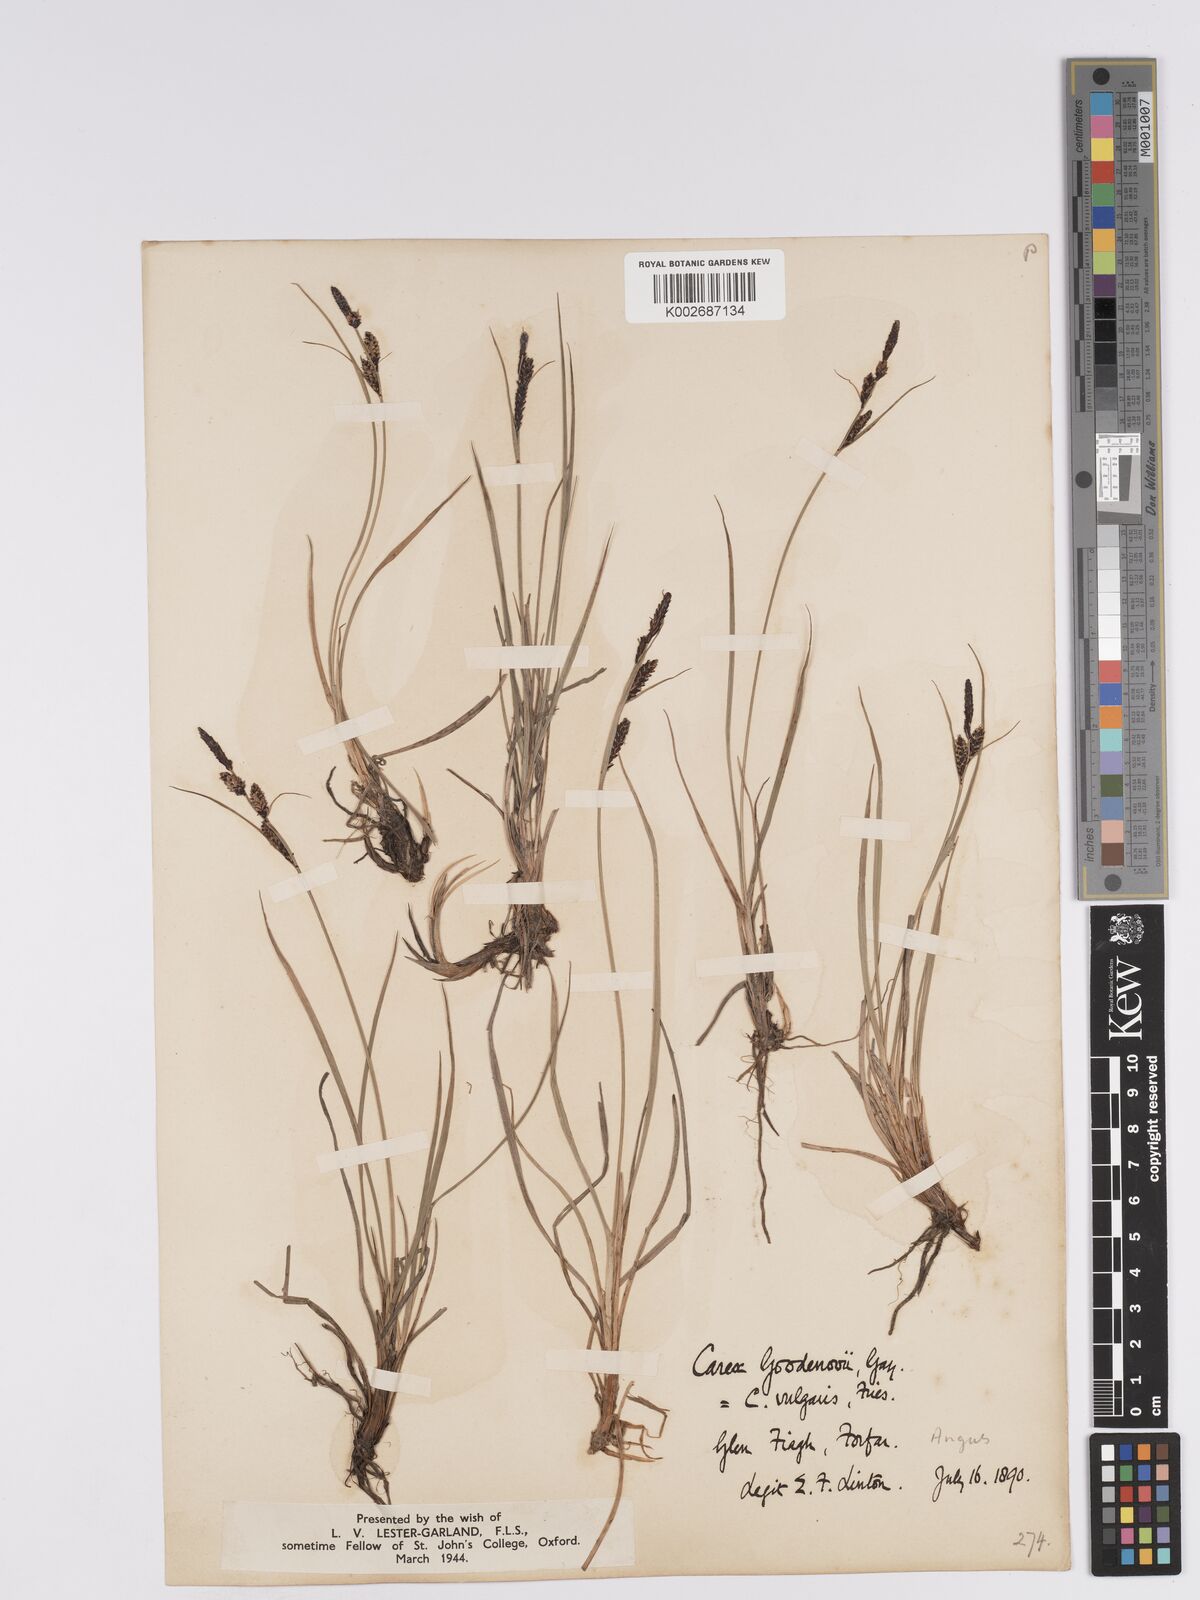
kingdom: Plantae
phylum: Tracheophyta
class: Liliopsida
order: Poales
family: Cyperaceae
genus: Carex
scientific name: Carex nigra
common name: Common sedge
